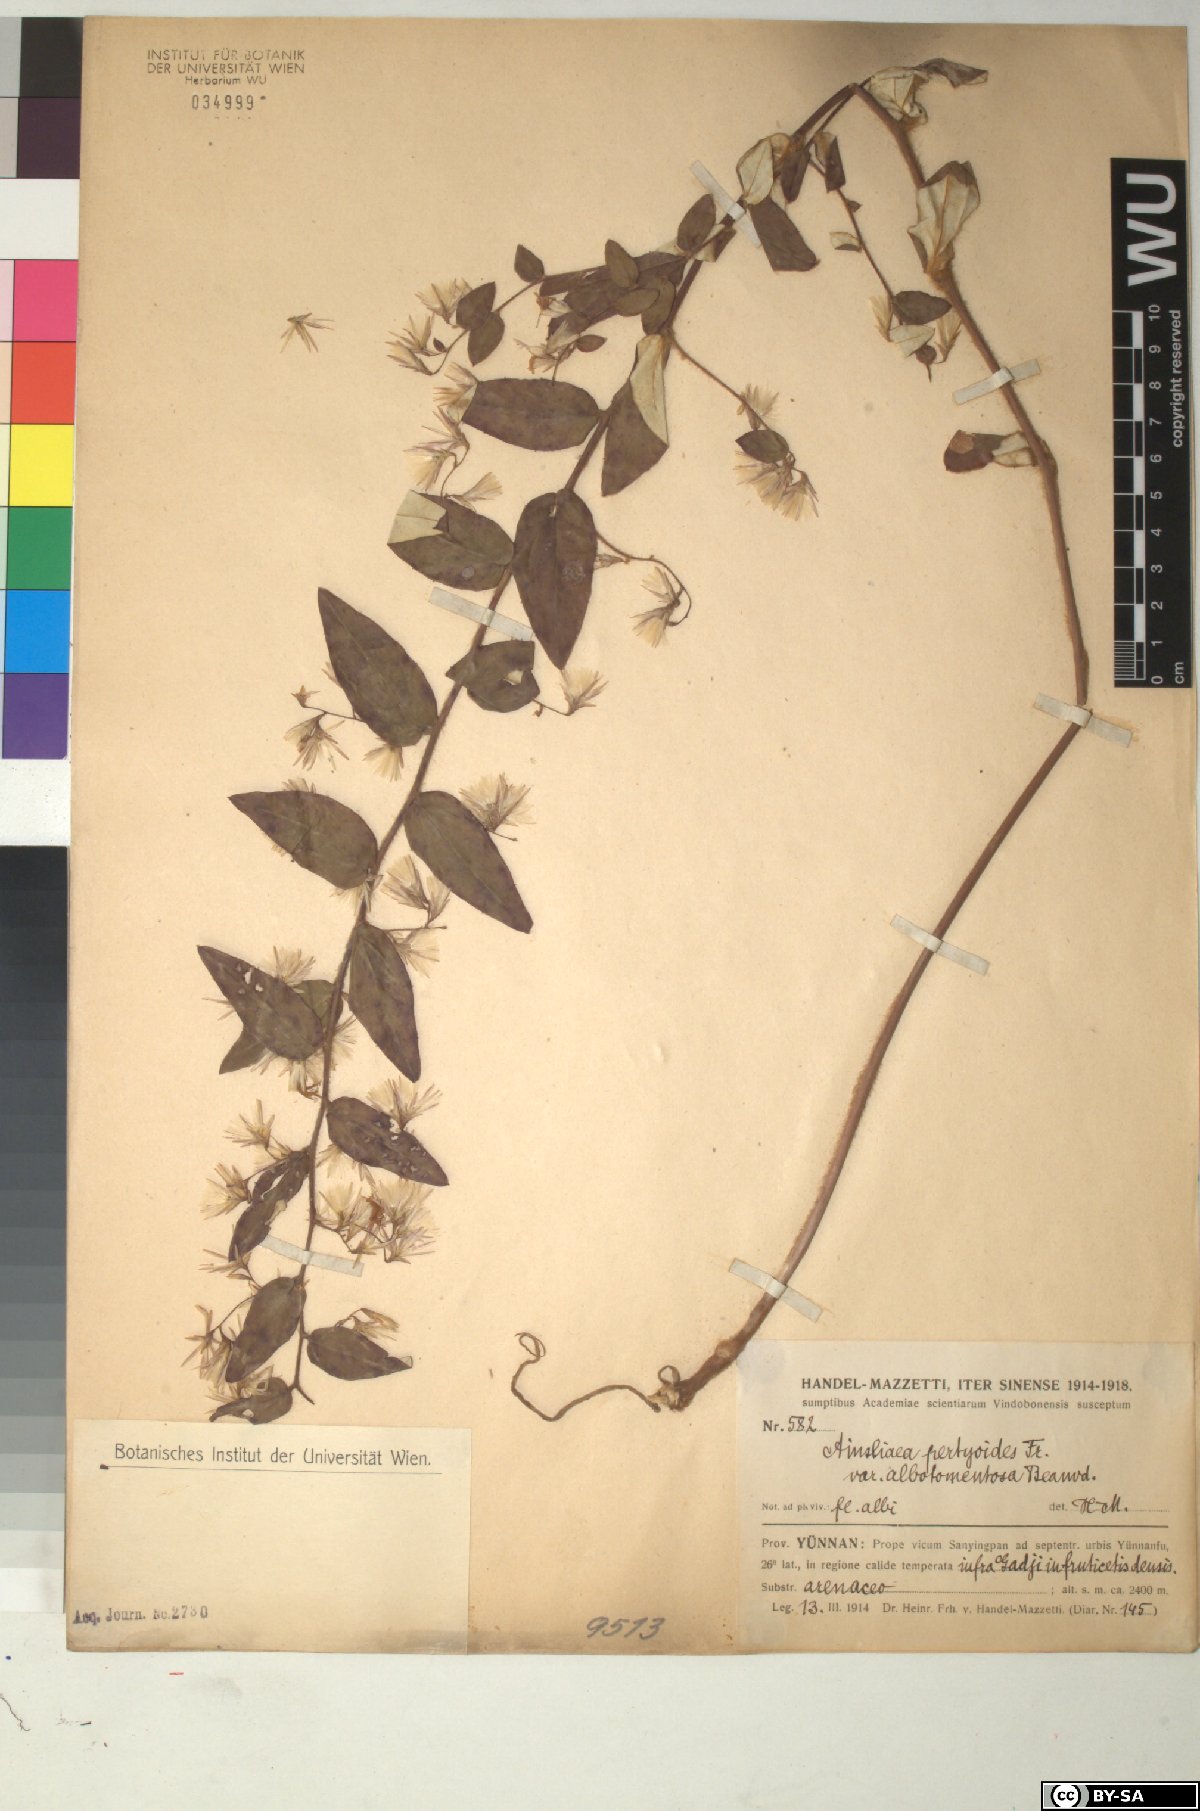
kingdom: Plantae
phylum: Tracheophyta
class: Magnoliopsida
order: Asterales
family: Asteraceae
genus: Ainsliaea
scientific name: Ainsliaea pertyoides
